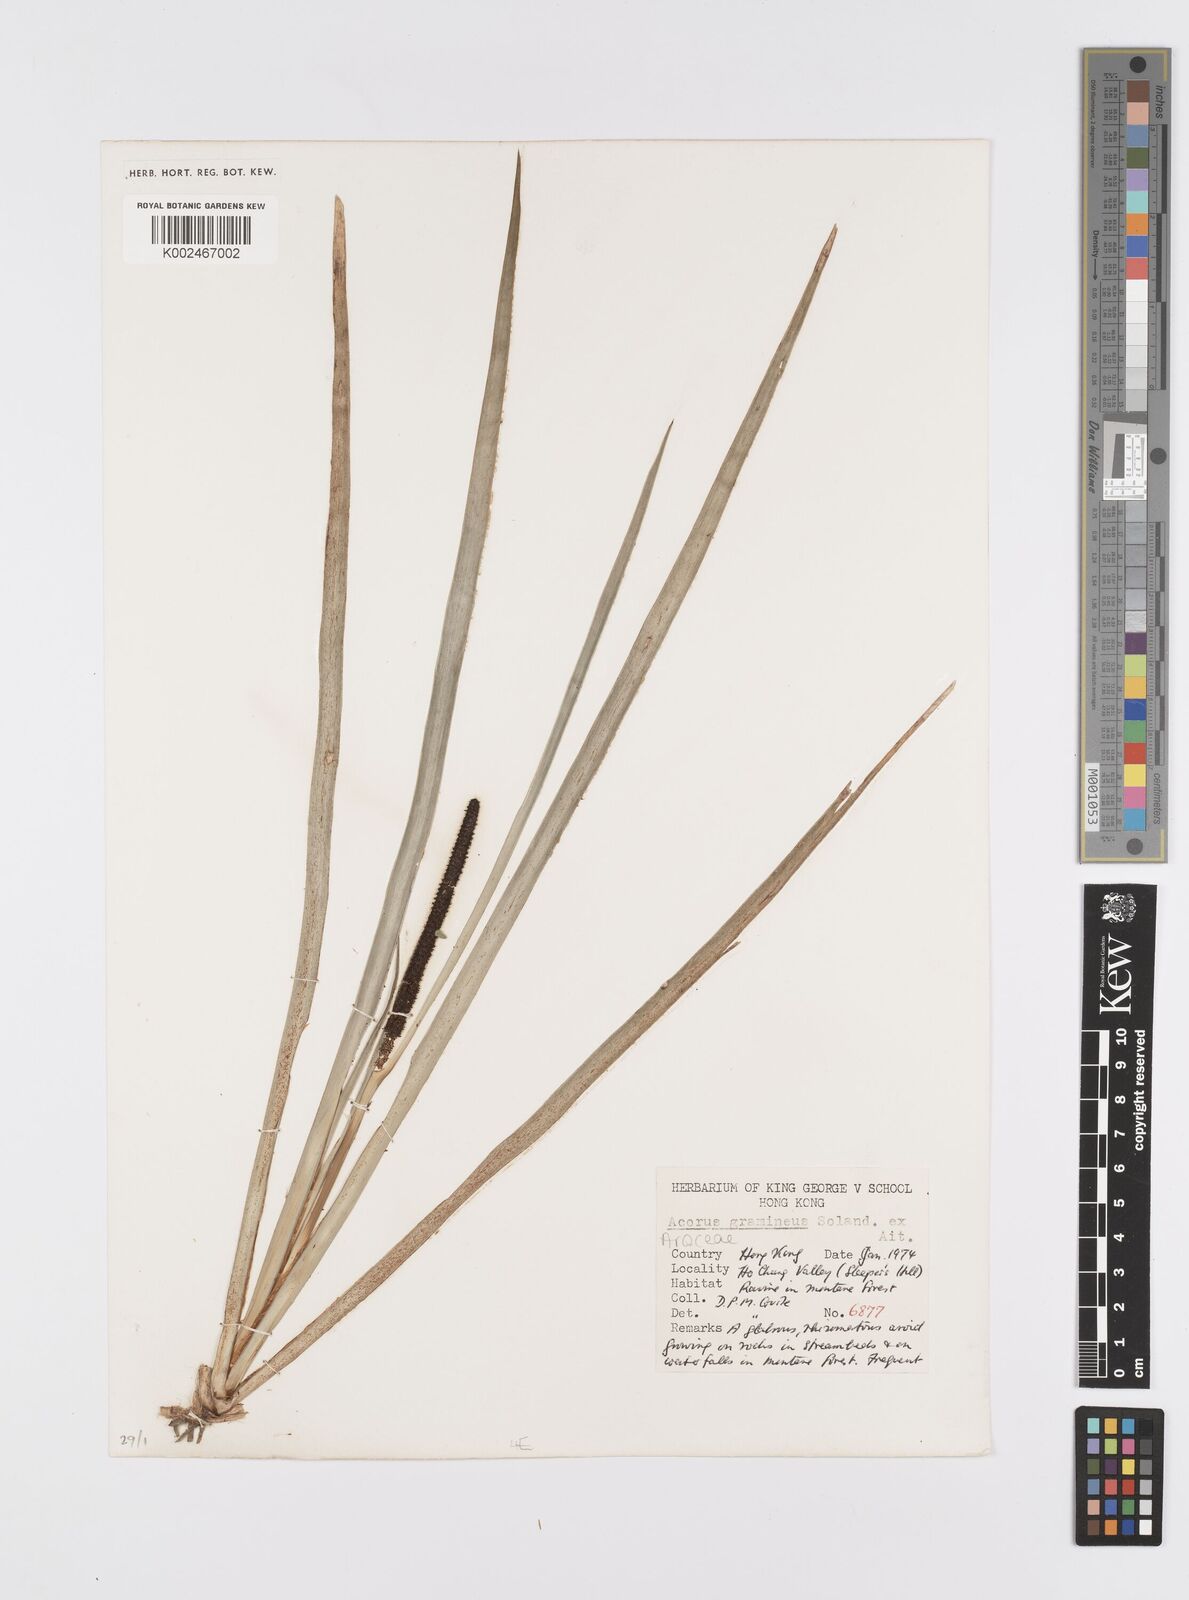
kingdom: Plantae
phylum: Tracheophyta
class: Liliopsida
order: Acorales
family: Acoraceae
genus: Acorus
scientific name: Acorus gramineus
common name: Slender sweet-flag
